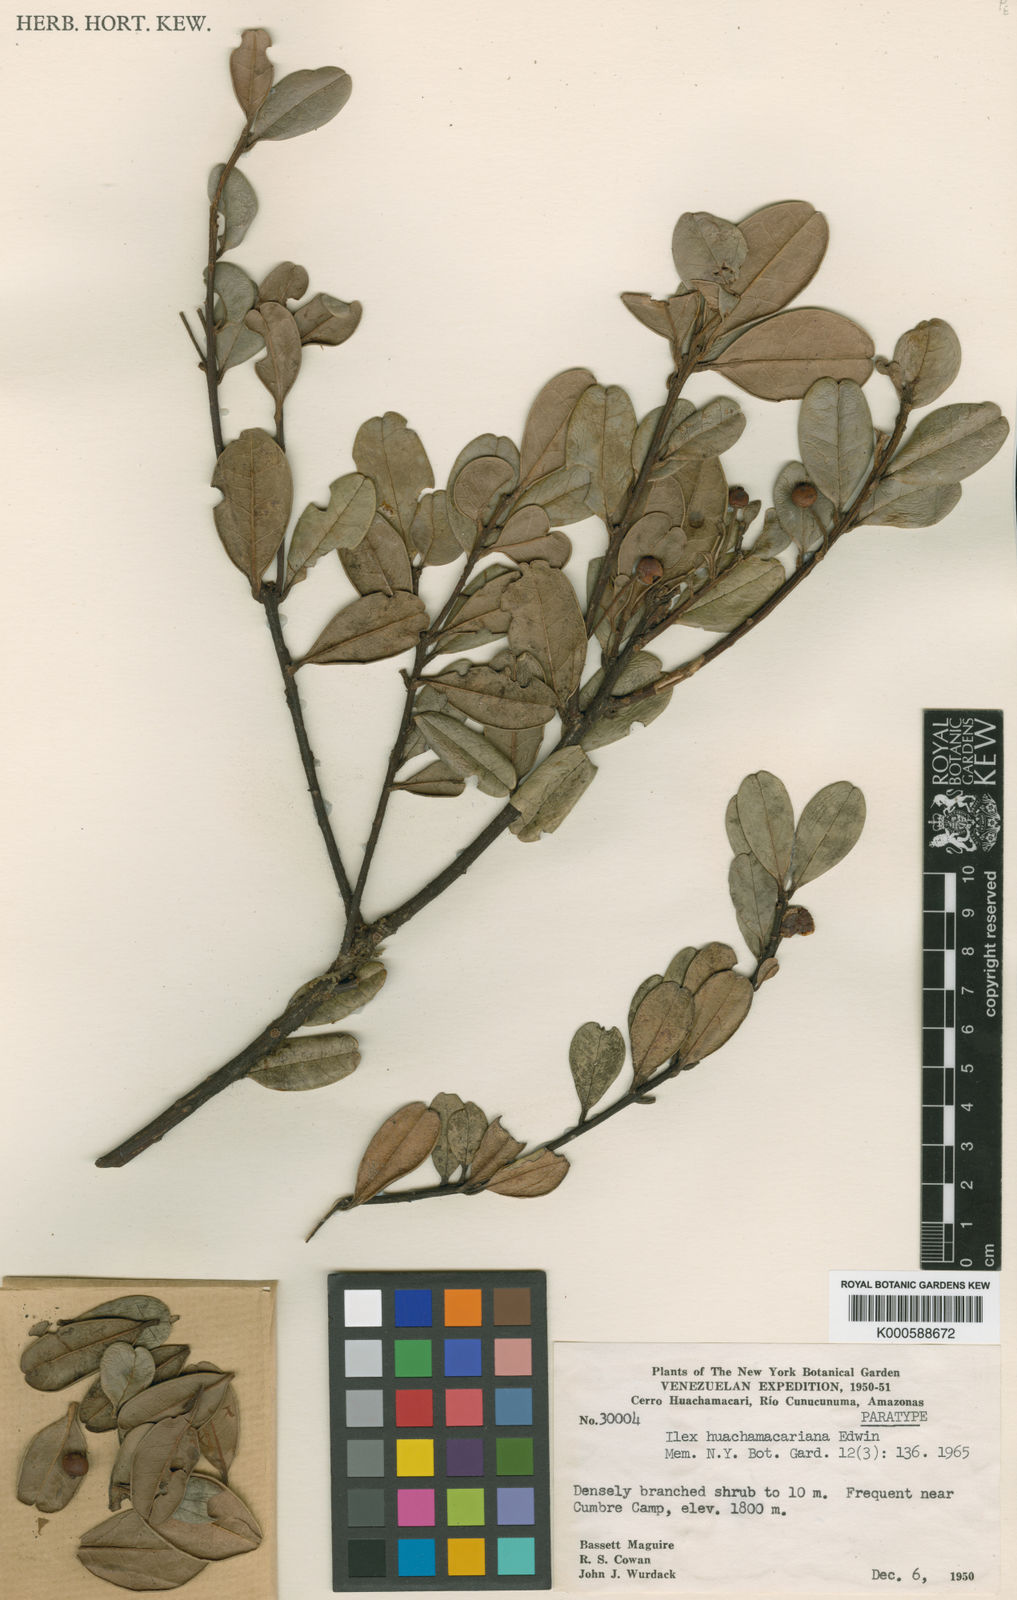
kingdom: Plantae
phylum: Tracheophyta
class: Magnoliopsida
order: Aquifoliales
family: Aquifoliaceae
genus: Ilex
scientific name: Ilex huachamacariana
